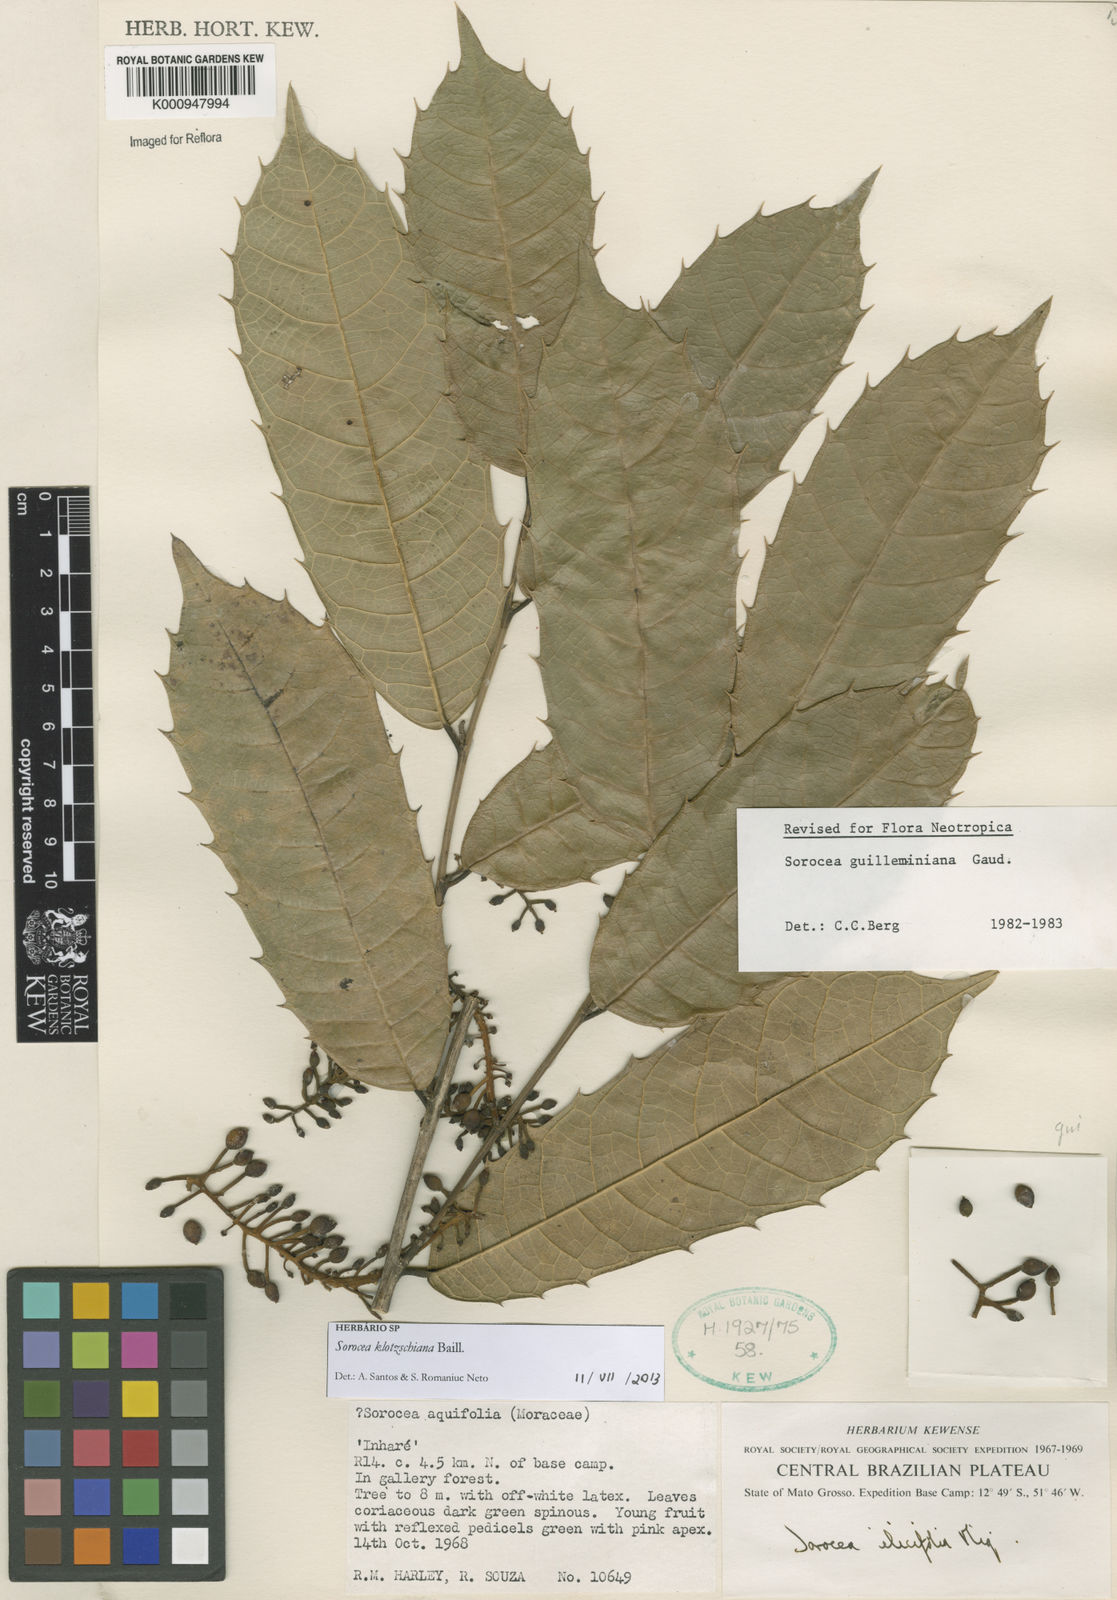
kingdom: Plantae
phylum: Tracheophyta
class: Magnoliopsida
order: Rosales
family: Moraceae
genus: Sorocea
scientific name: Sorocea guilleminiana
